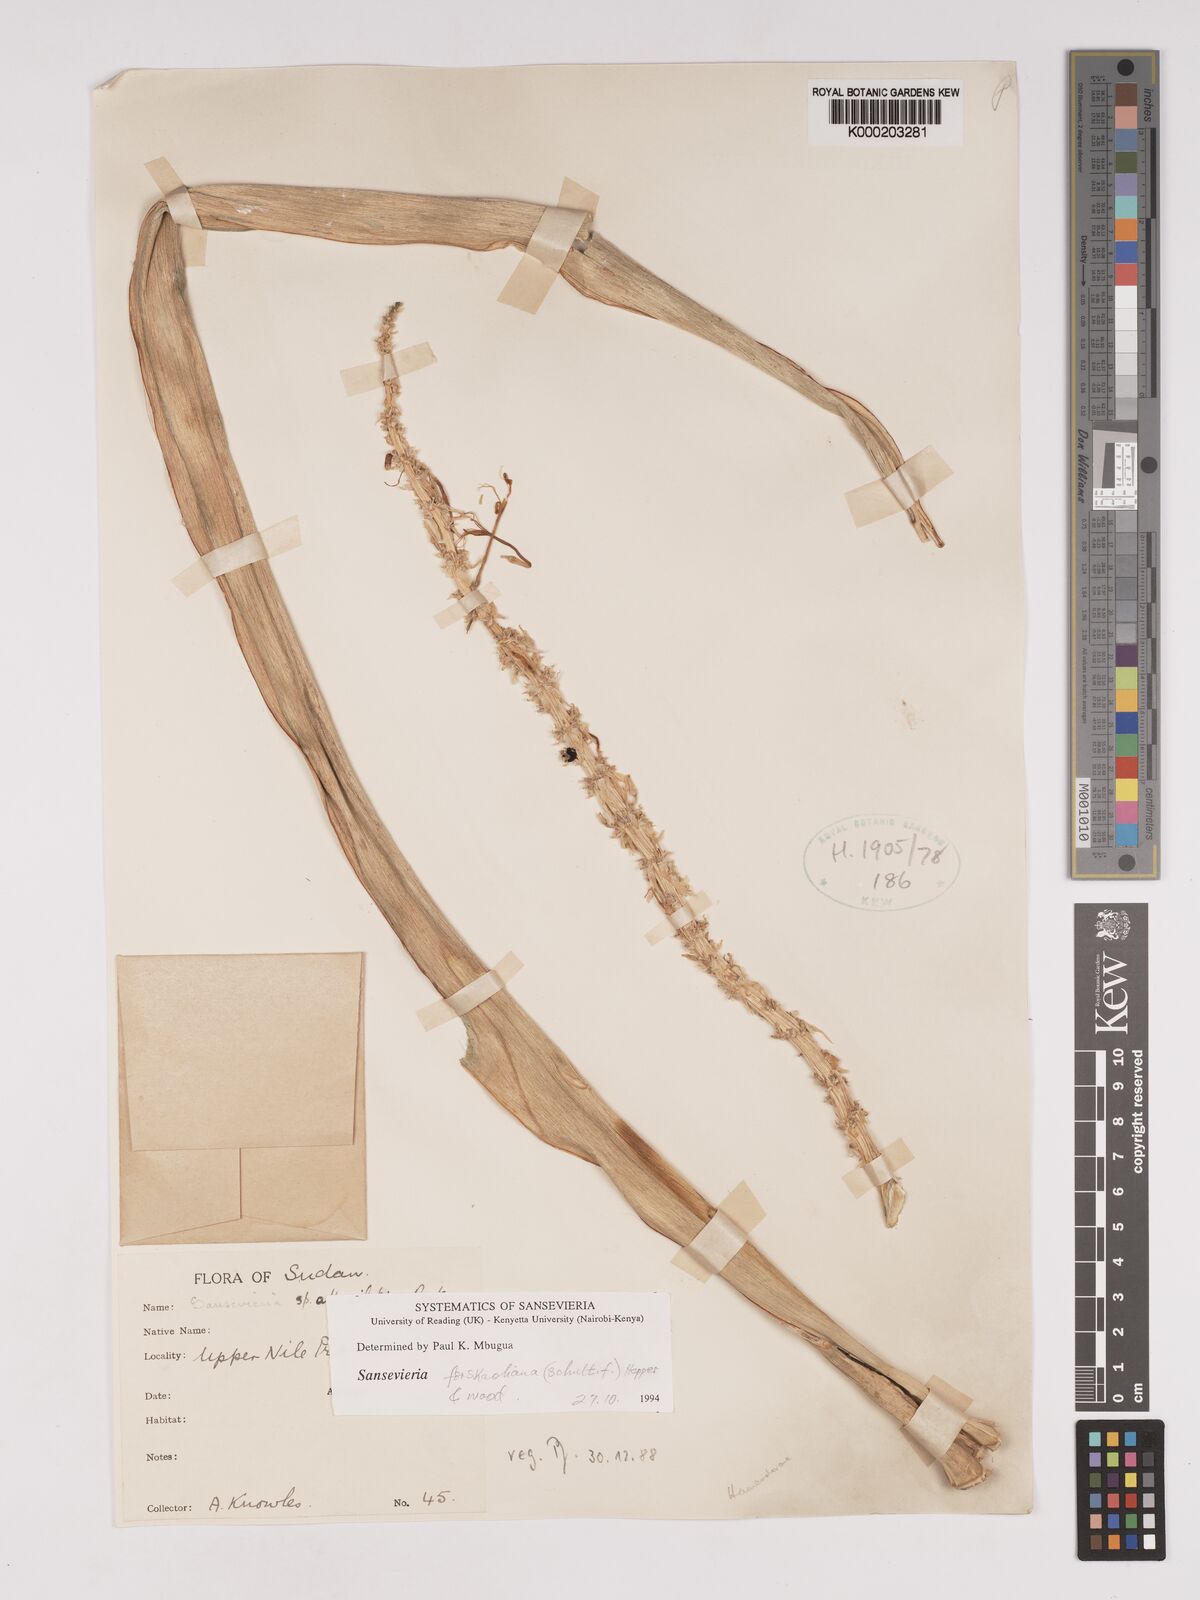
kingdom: Plantae
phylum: Tracheophyta
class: Liliopsida
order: Asparagales
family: Asparagaceae
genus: Dracaena
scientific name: Dracaena nilotica
